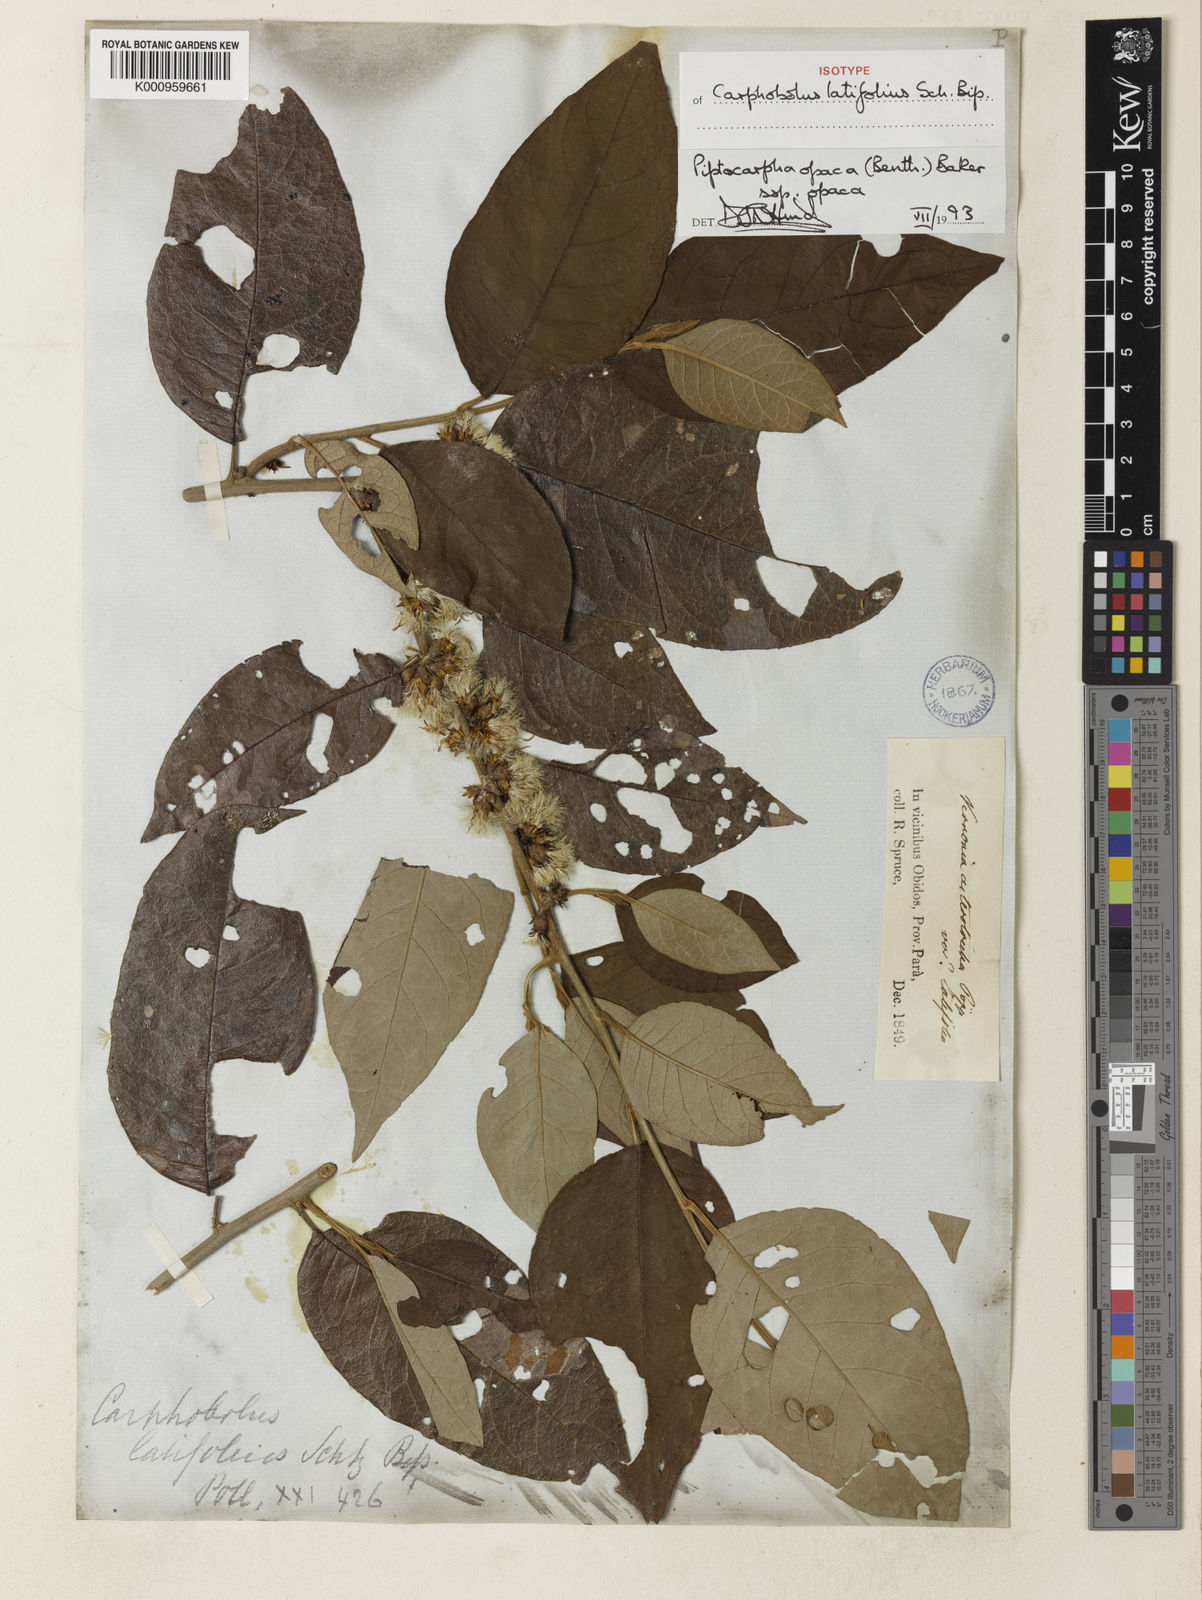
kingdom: Plantae
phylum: Tracheophyta
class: Magnoliopsida
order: Asterales
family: Asteraceae
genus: Piptocarpha
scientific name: Piptocarpha opaca
